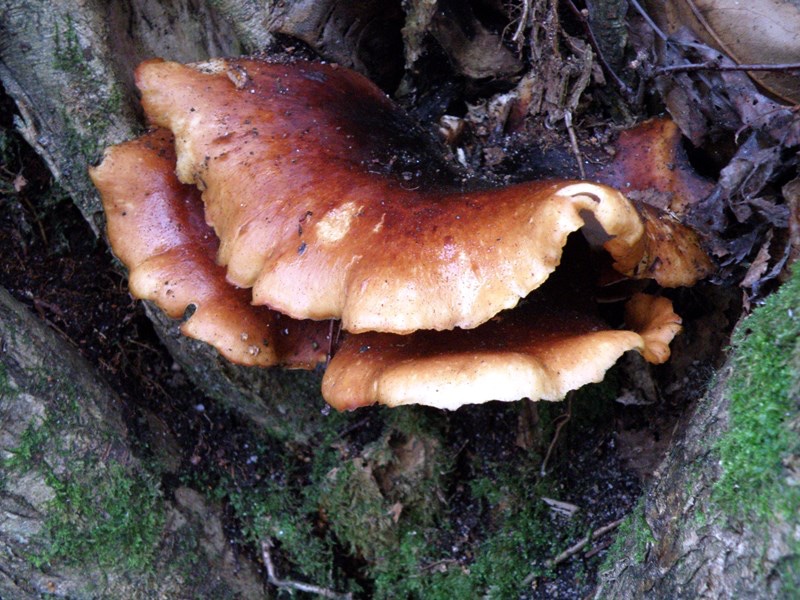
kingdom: Fungi
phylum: Basidiomycota
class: Agaricomycetes
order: Polyporales
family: Polyporaceae
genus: Picipes
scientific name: Picipes badius
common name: kastaniebrun stilkporesvamp
